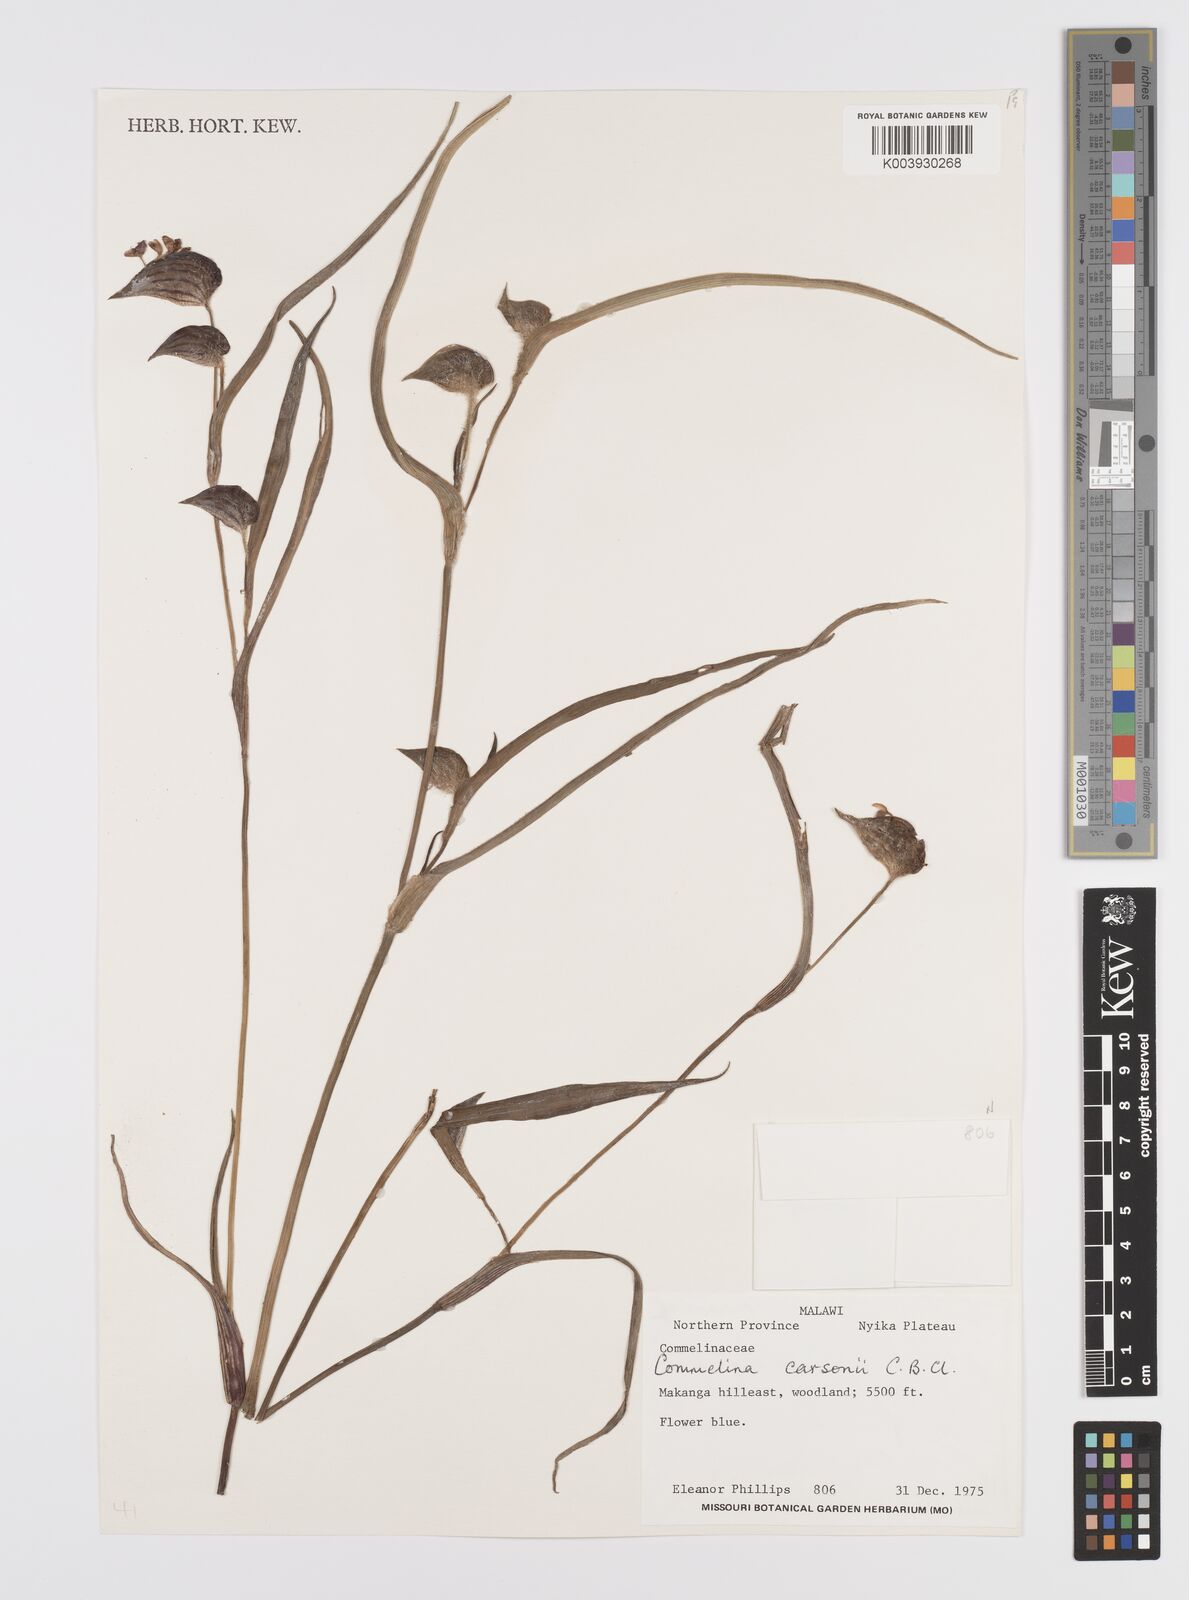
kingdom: Plantae
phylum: Tracheophyta
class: Liliopsida
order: Commelinales
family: Commelinaceae
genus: Commelina
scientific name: Commelina schweinfurthii
